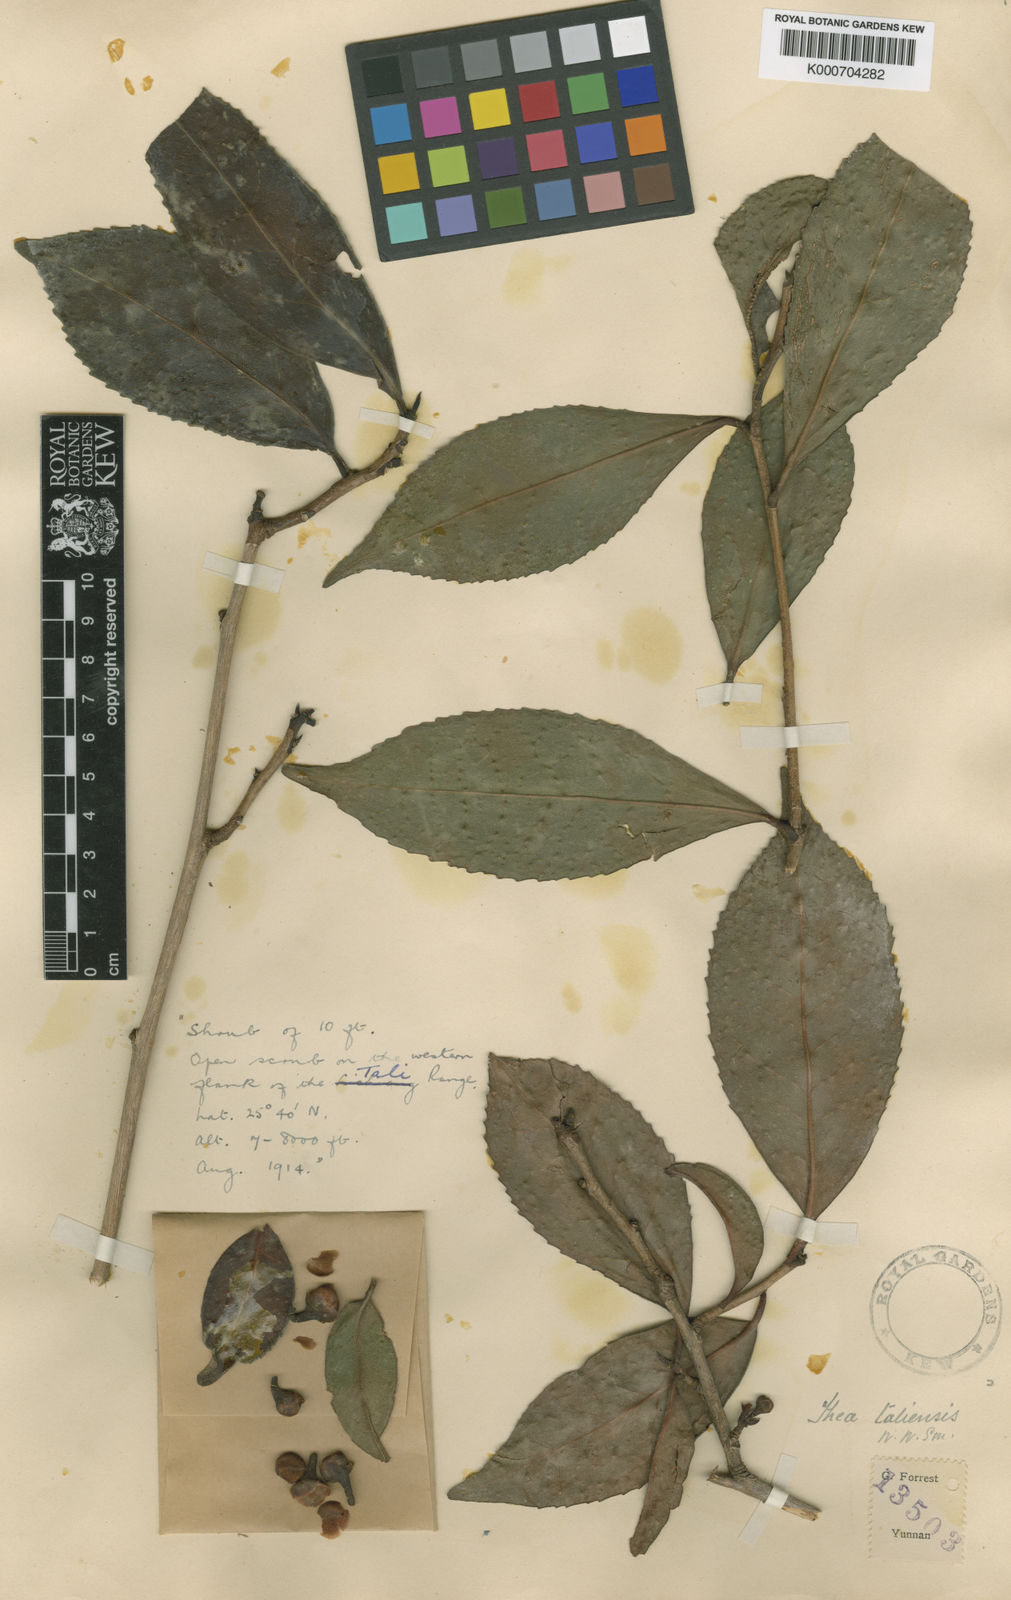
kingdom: Plantae
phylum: Tracheophyta
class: Magnoliopsida
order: Ericales
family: Theaceae
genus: Camellia
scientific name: Camellia taliensis
